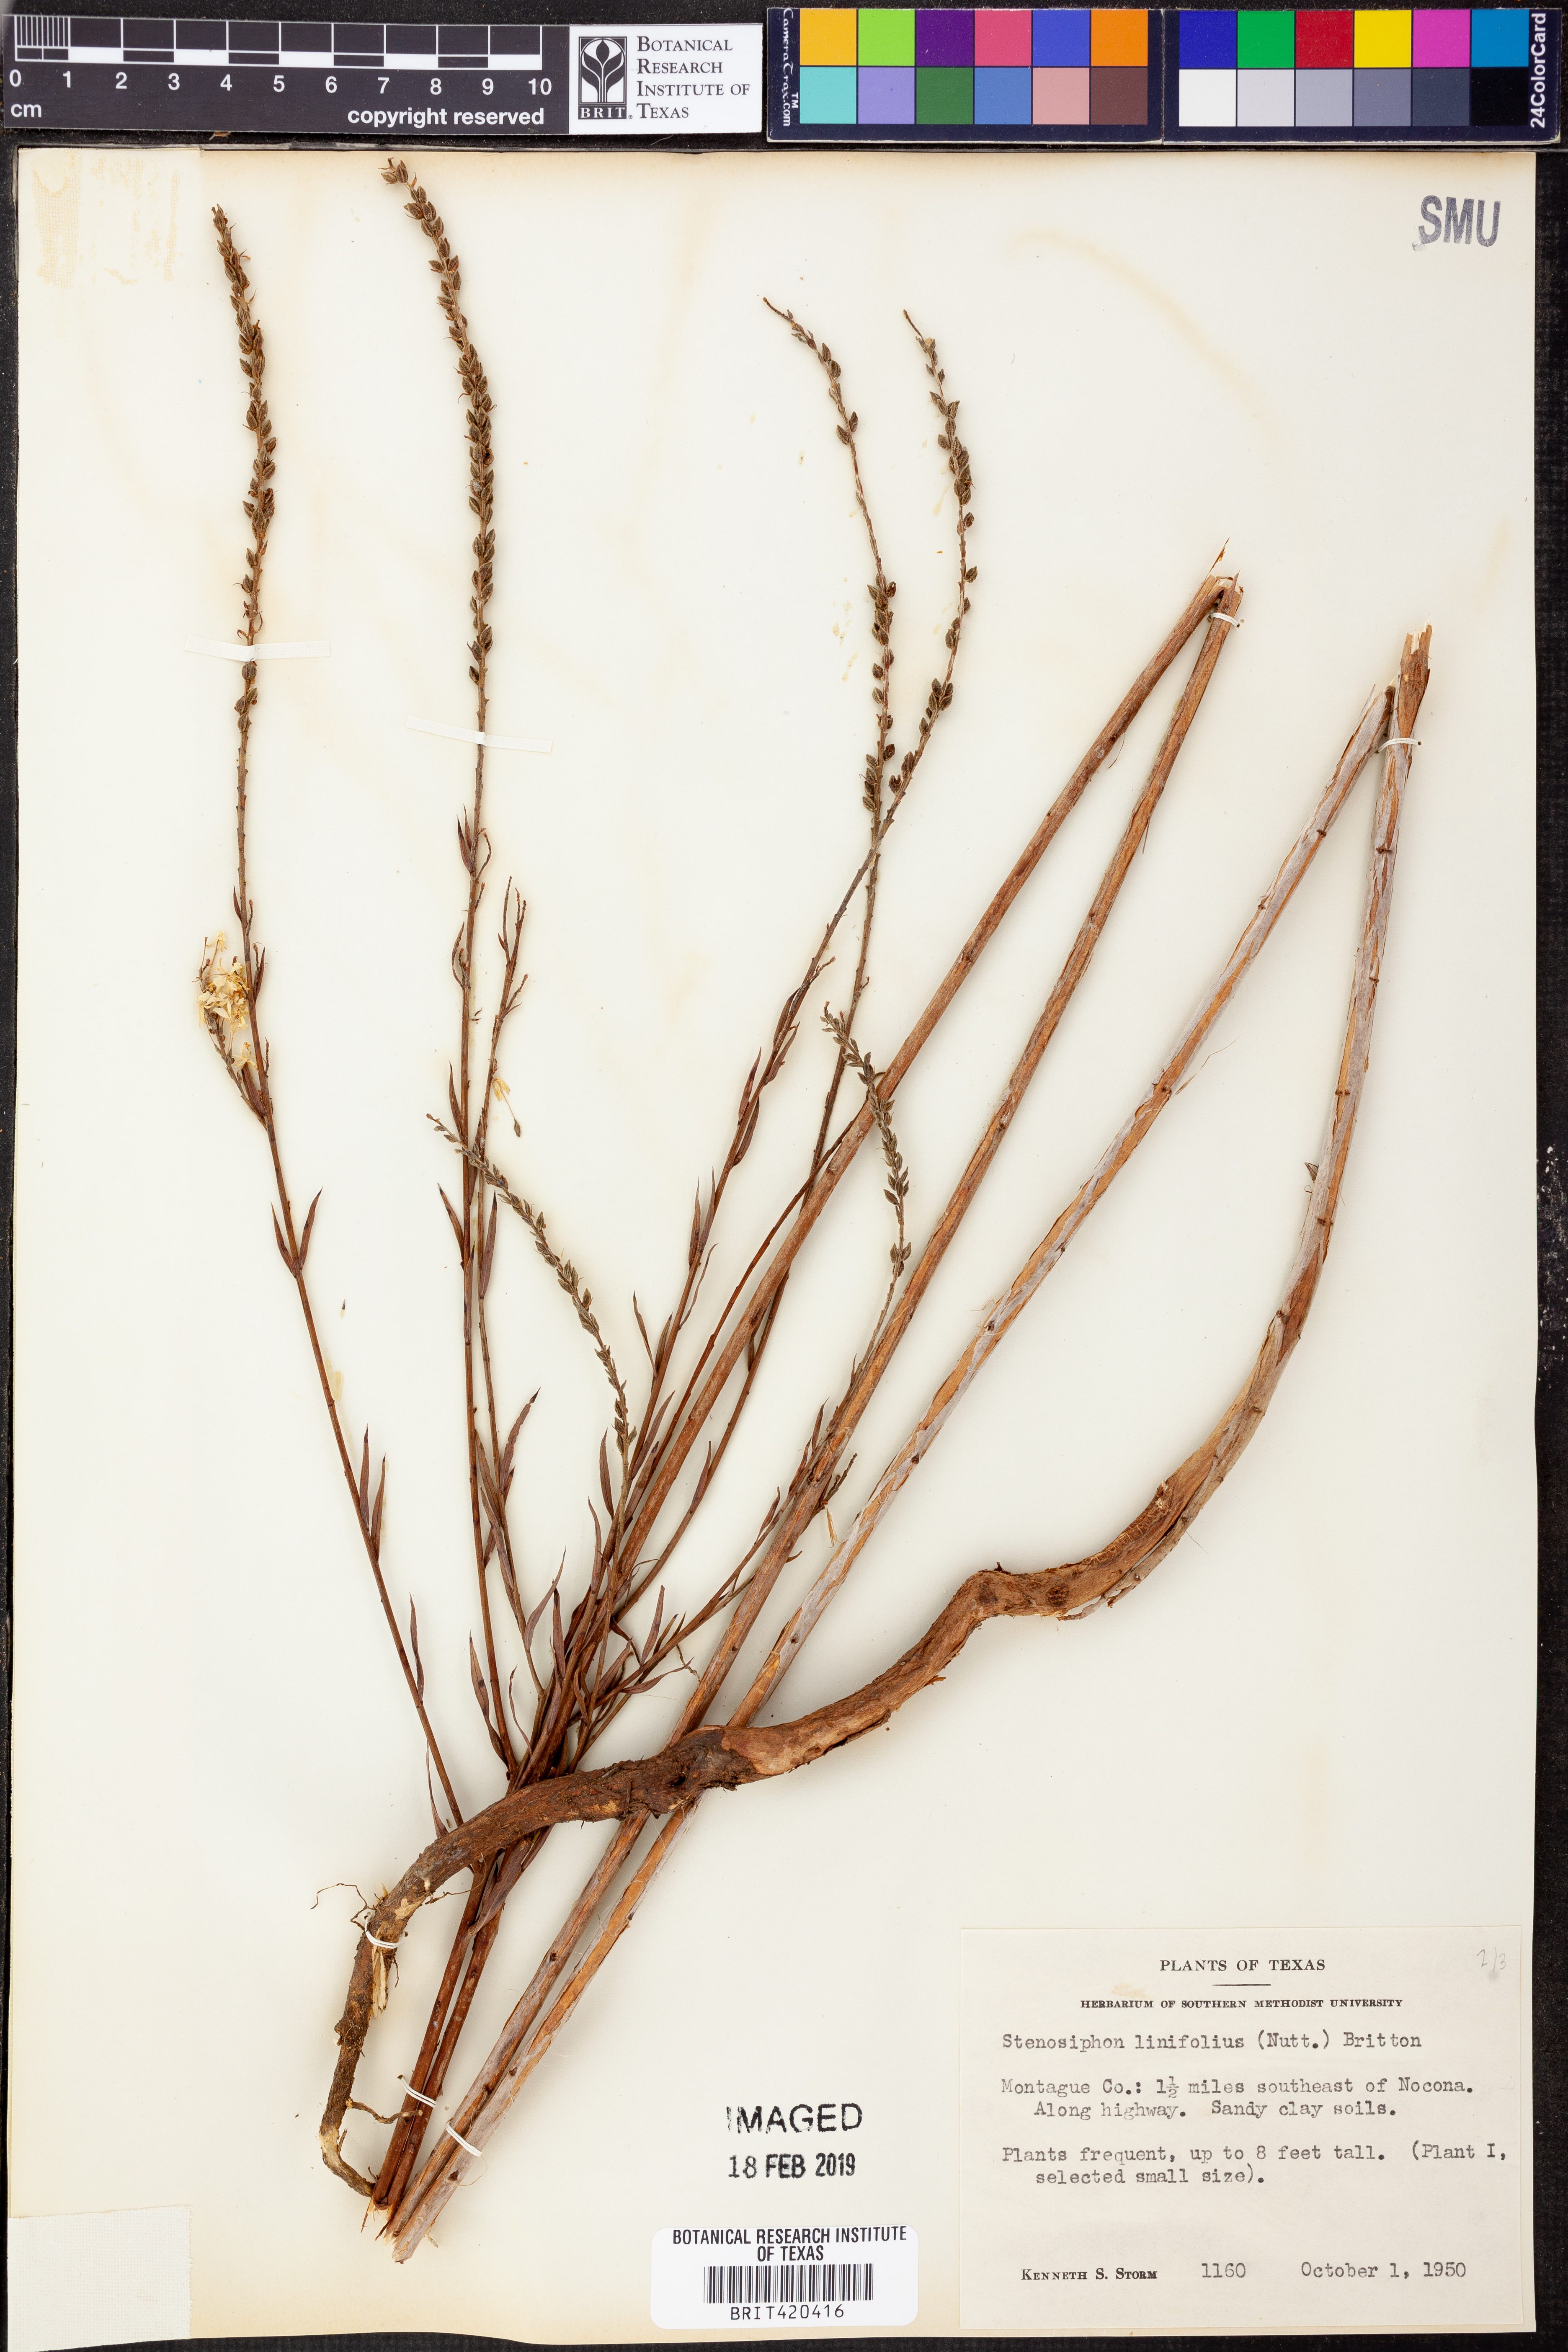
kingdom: Plantae
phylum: Tracheophyta
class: Magnoliopsida
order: Myrtales
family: Onagraceae
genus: Oenothera
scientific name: Oenothera glaucifolia
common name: False gaura
